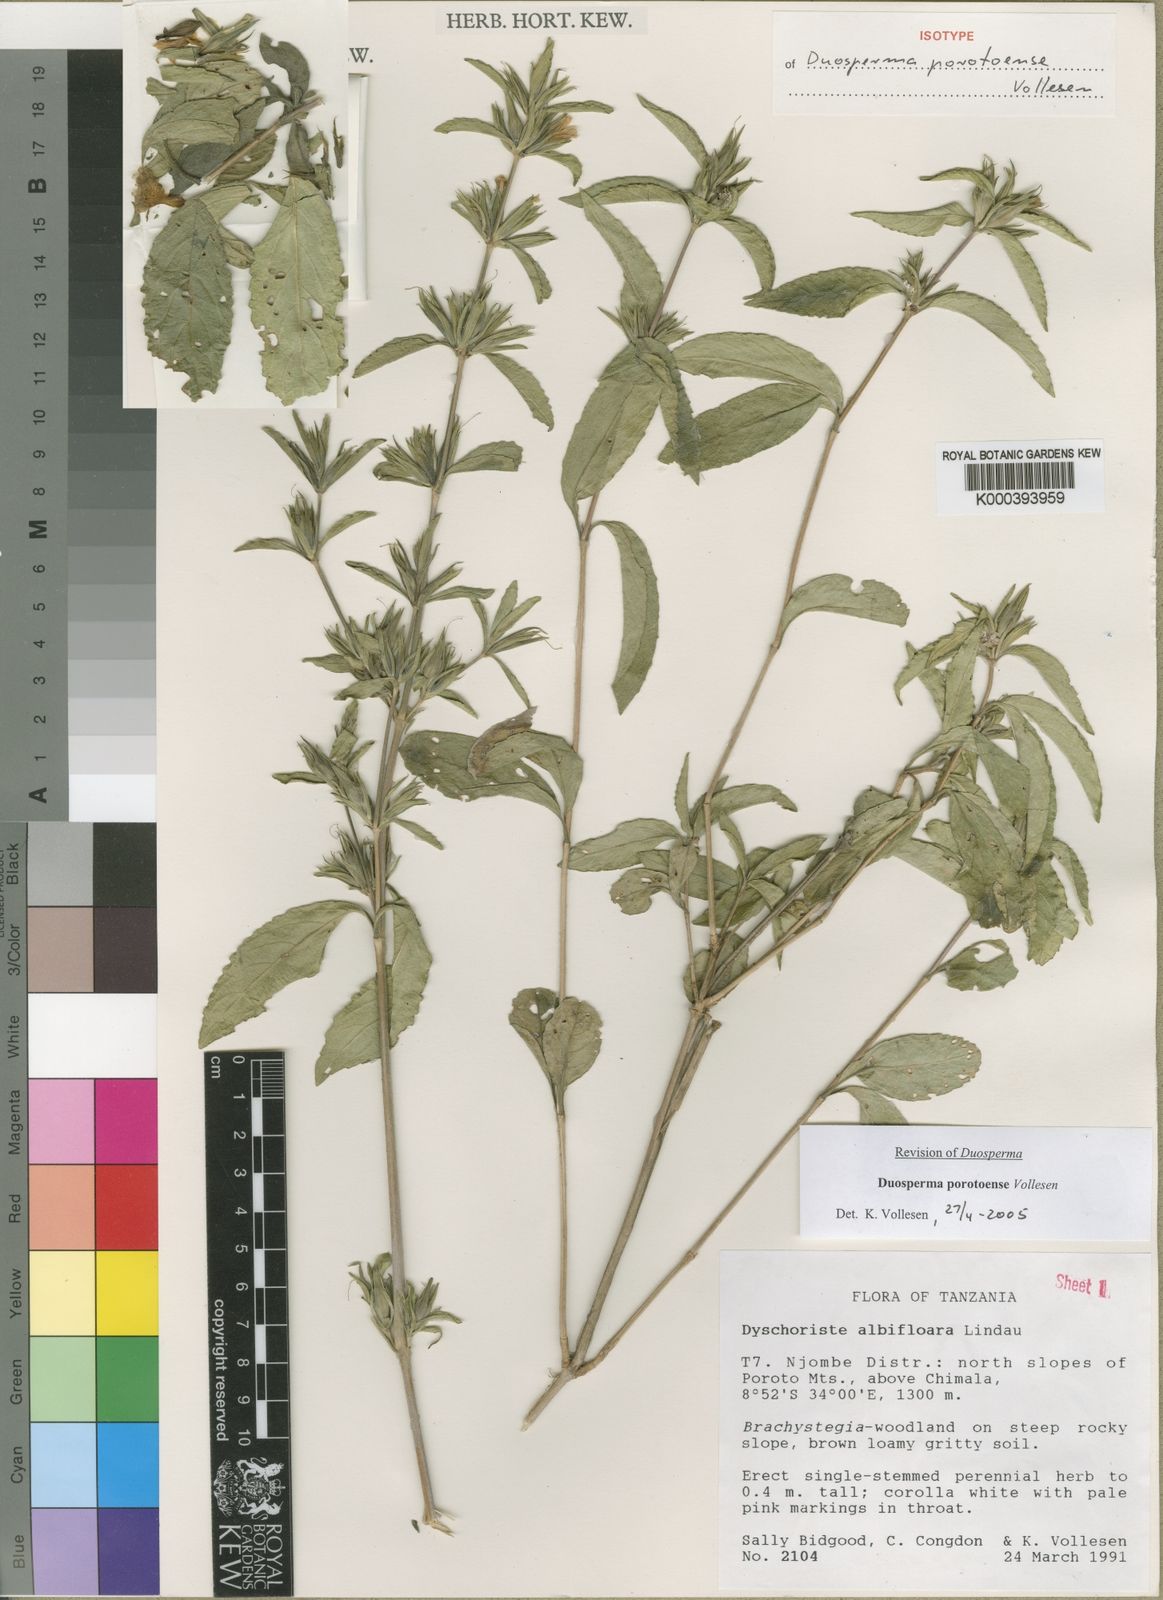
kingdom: Plantae
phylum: Tracheophyta
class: Magnoliopsida
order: Lamiales
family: Acanthaceae
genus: Duosperma
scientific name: Duosperma porotoense
